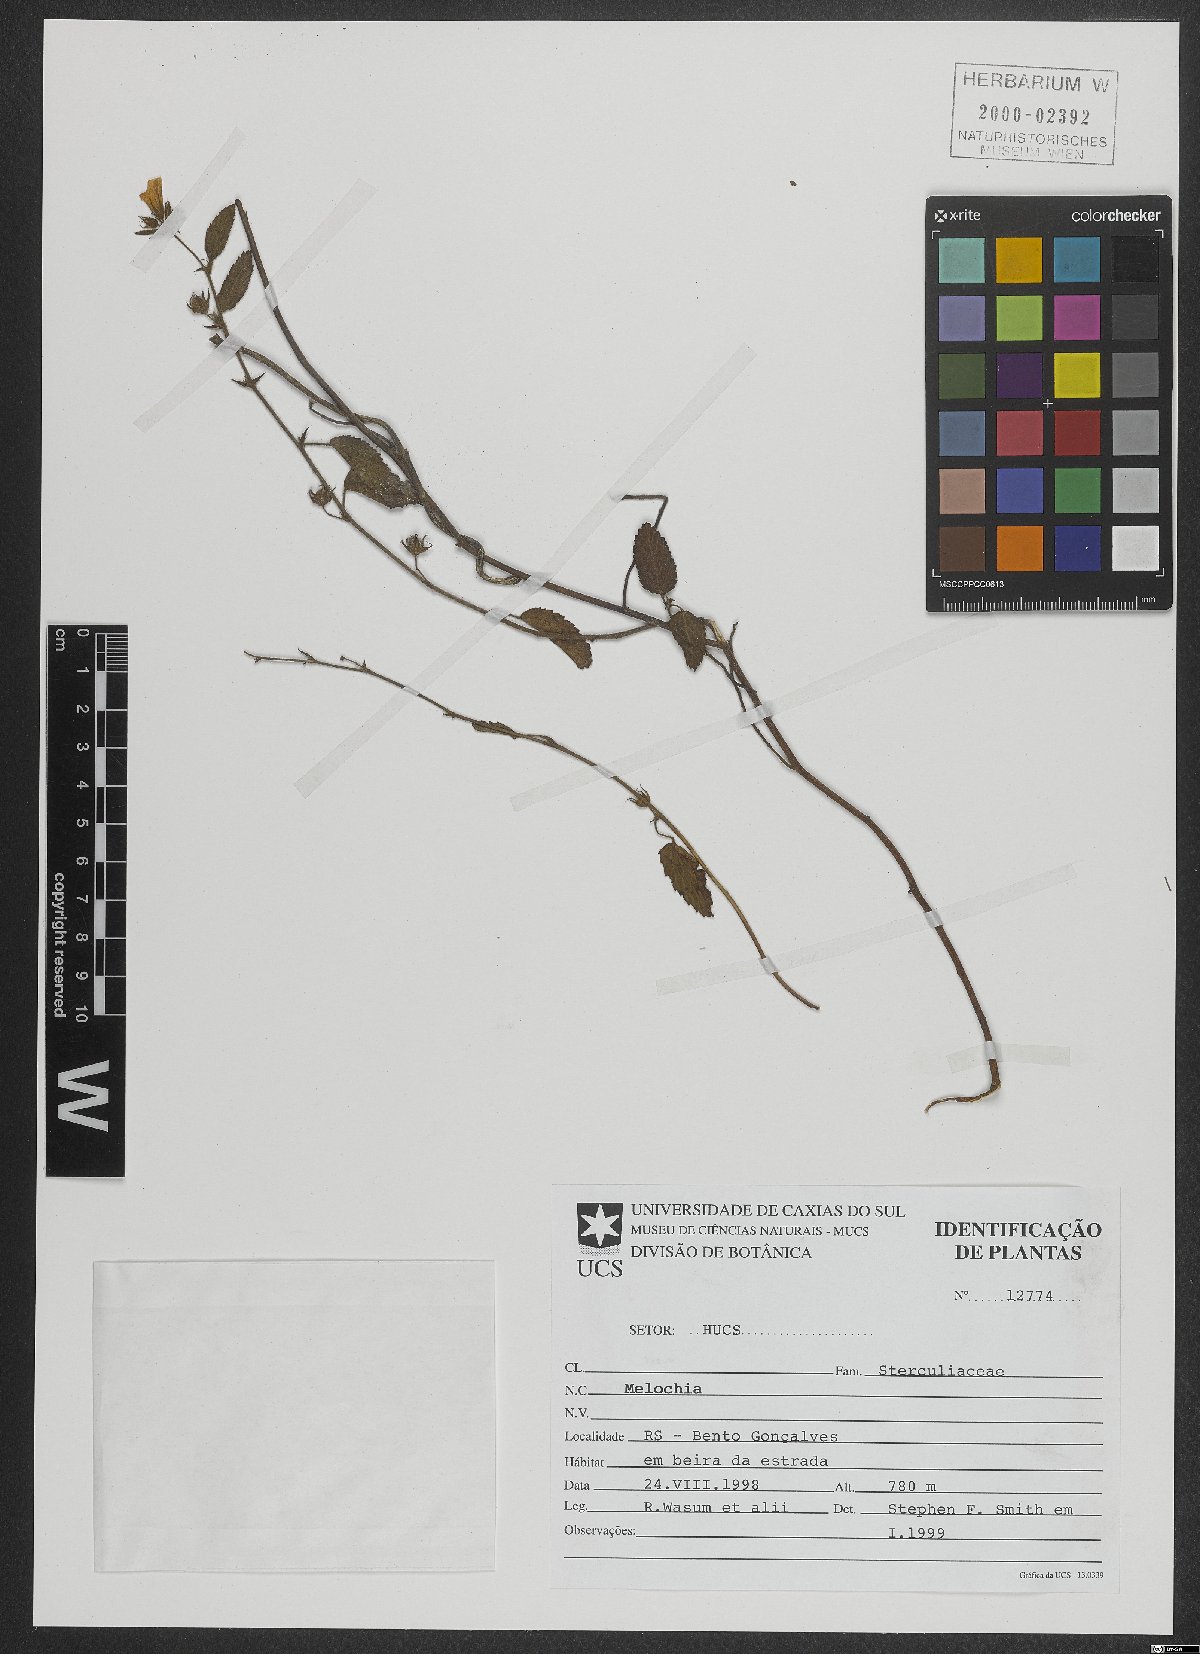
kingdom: Plantae
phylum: Tracheophyta
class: Magnoliopsida
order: Malvales
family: Malvaceae
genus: Melochia
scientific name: Melochia
